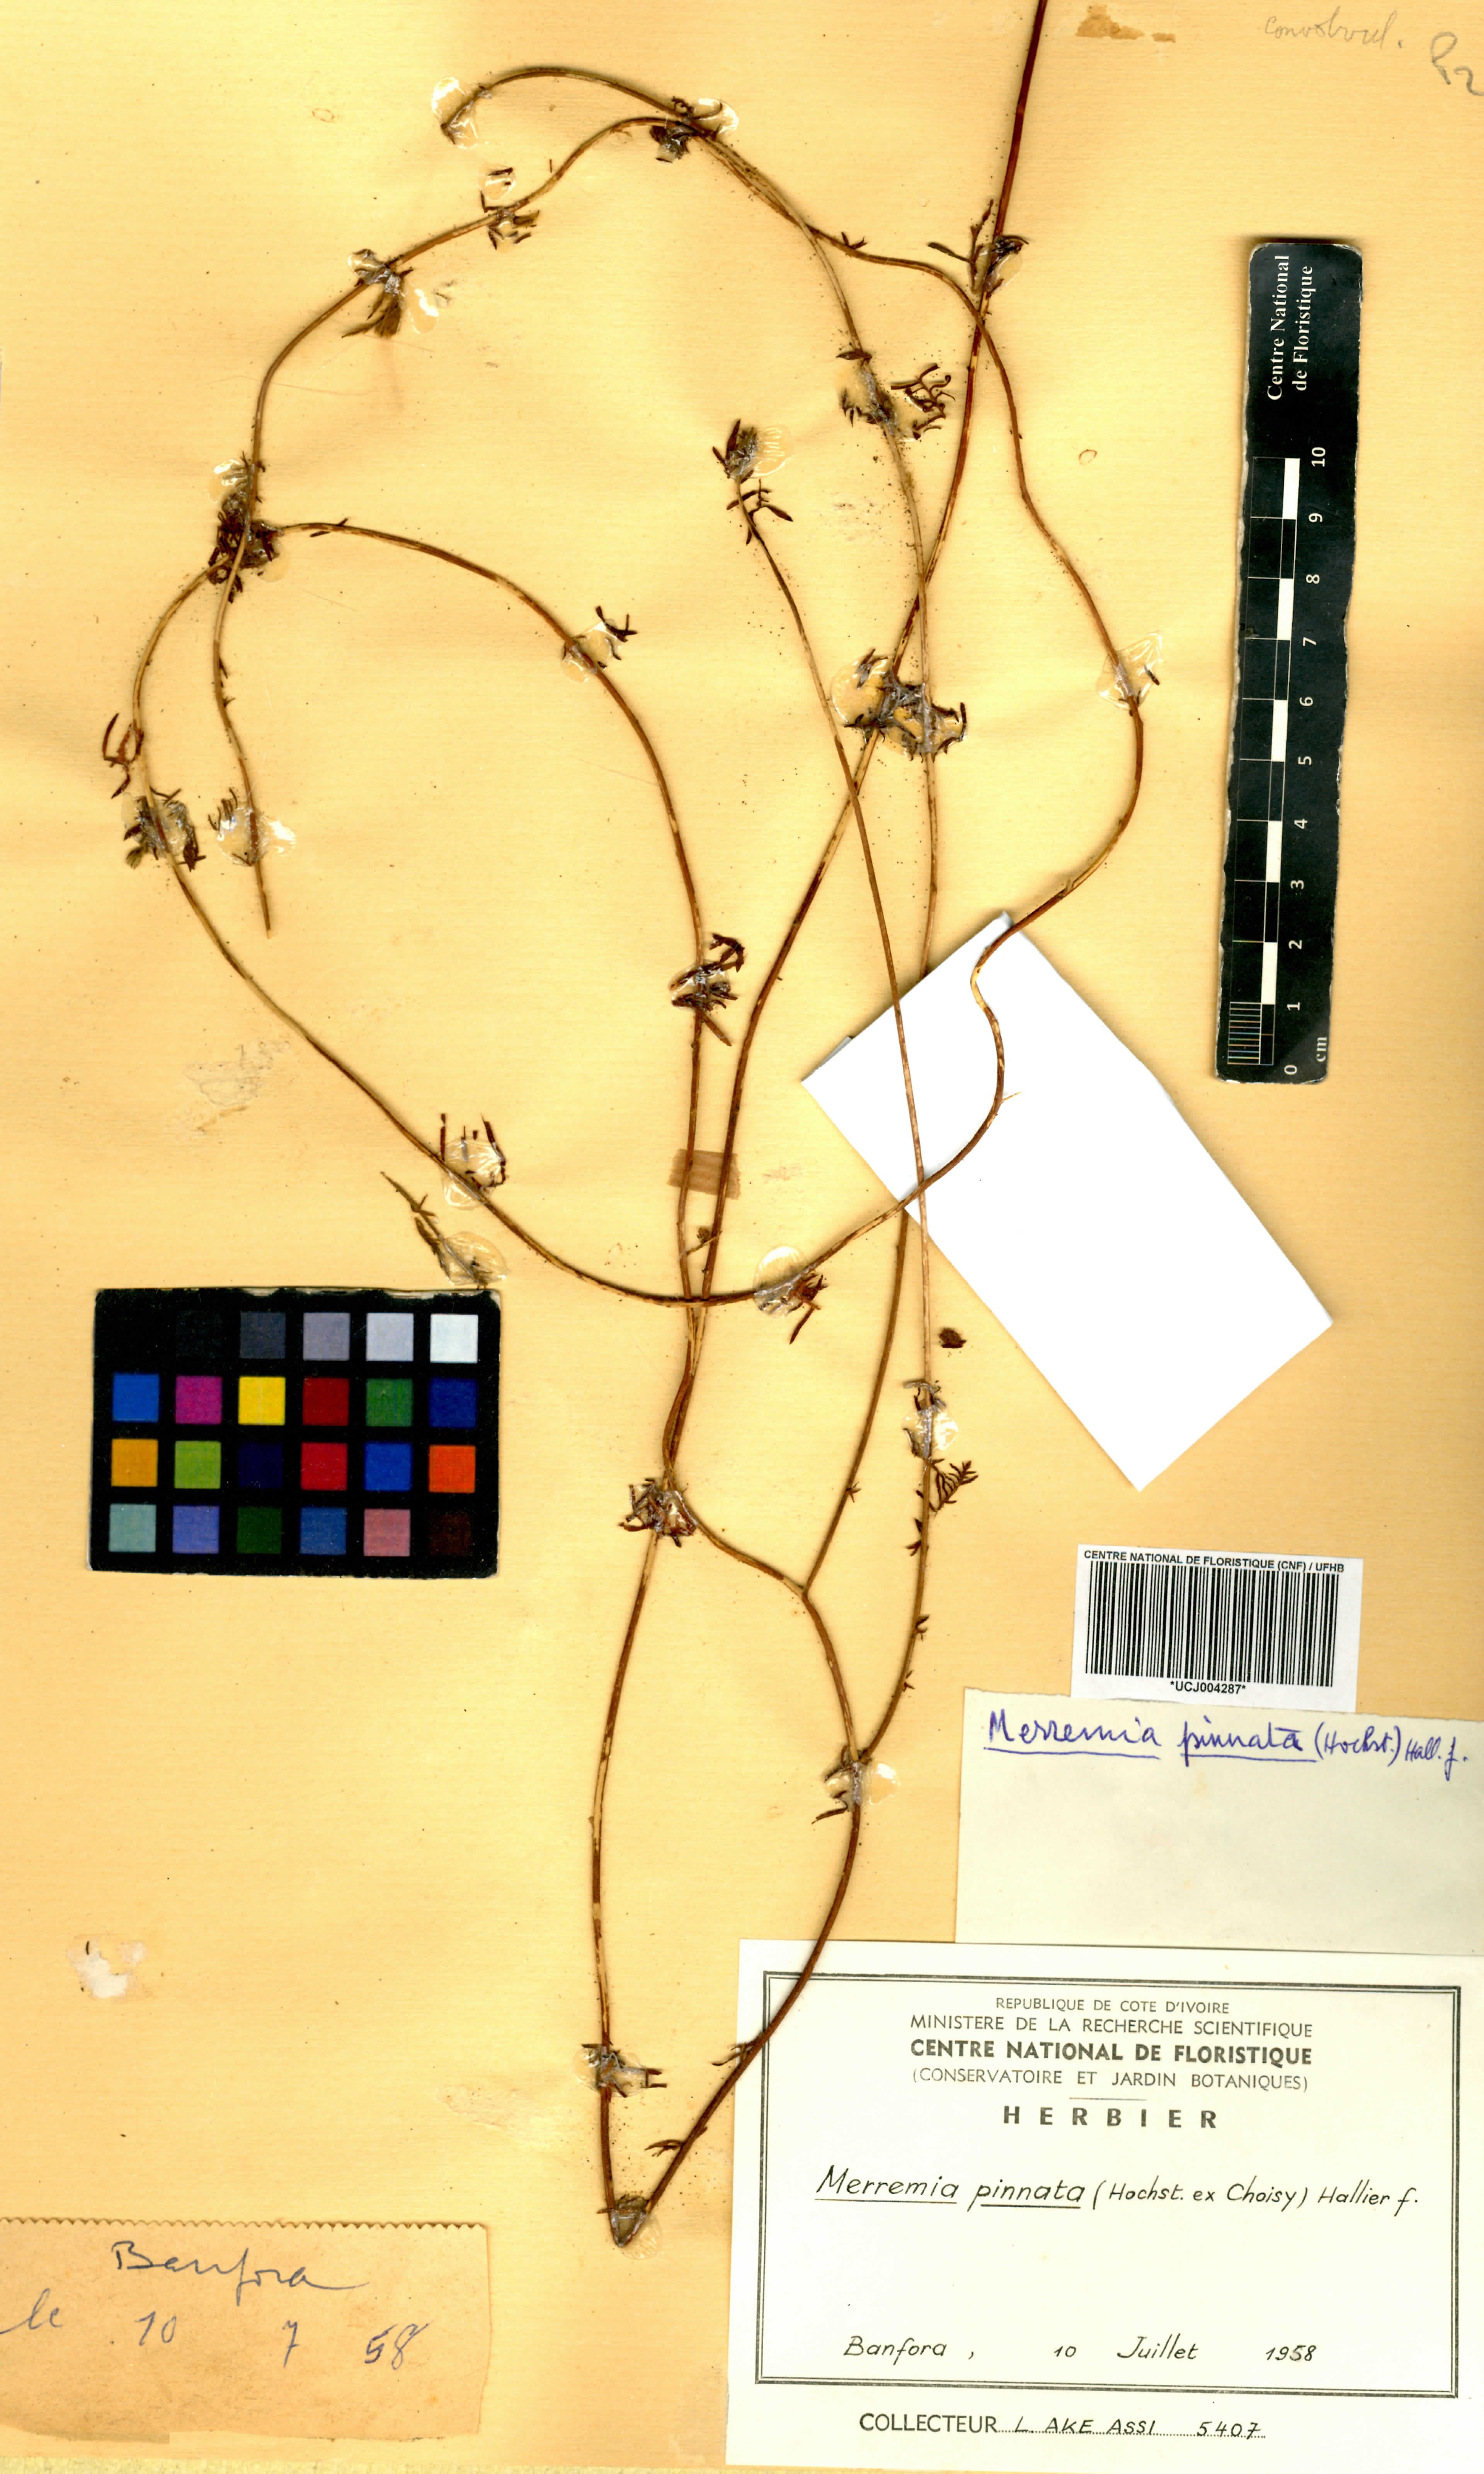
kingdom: Plantae
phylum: Tracheophyta
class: Magnoliopsida
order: Solanales
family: Convolvulaceae
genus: Xenostegia
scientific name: Xenostegia pinnata
